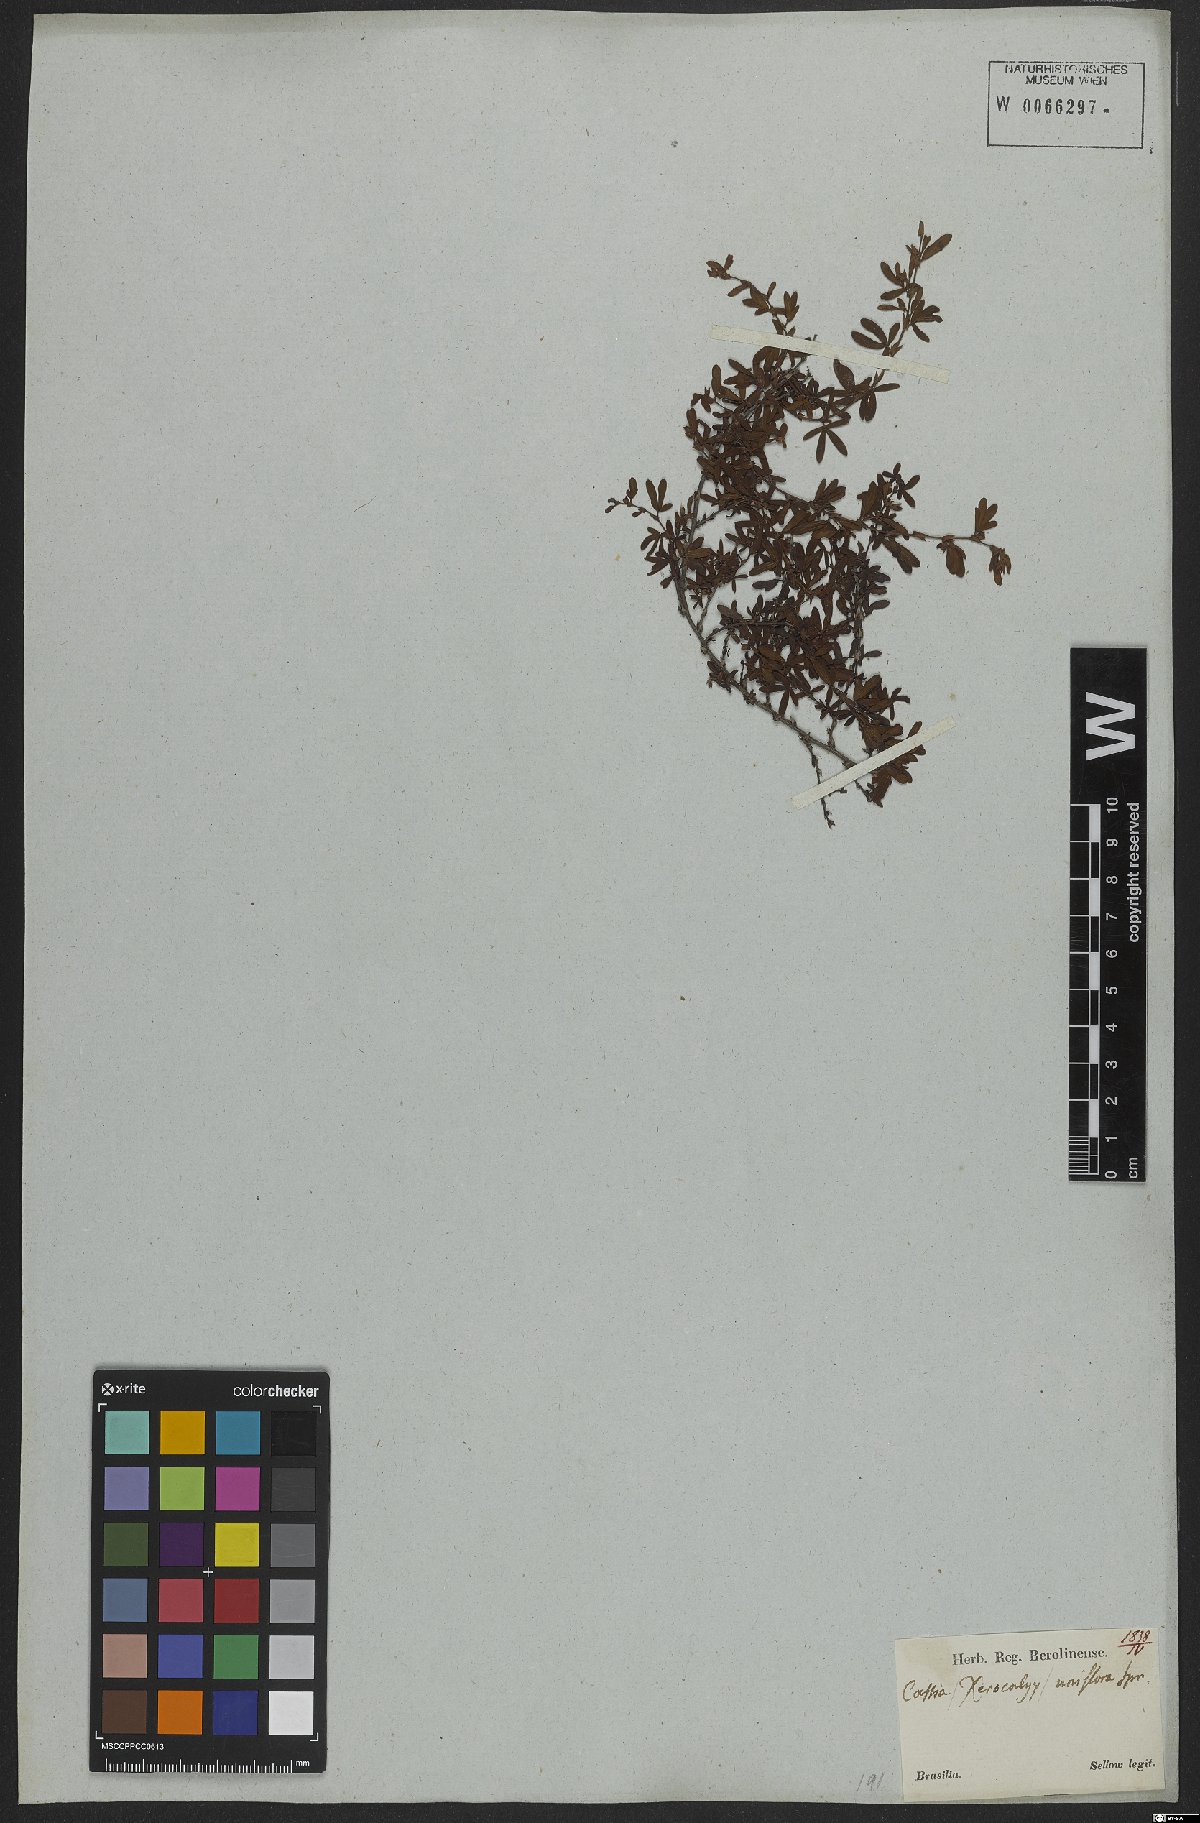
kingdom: Plantae
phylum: Tracheophyta
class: Magnoliopsida
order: Fabales
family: Fabaceae
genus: Senna
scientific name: Senna uniflora
